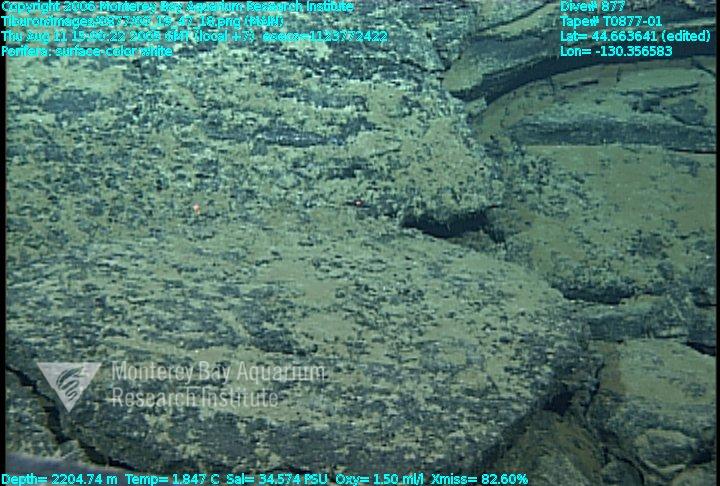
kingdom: Animalia
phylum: Porifera
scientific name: Porifera
